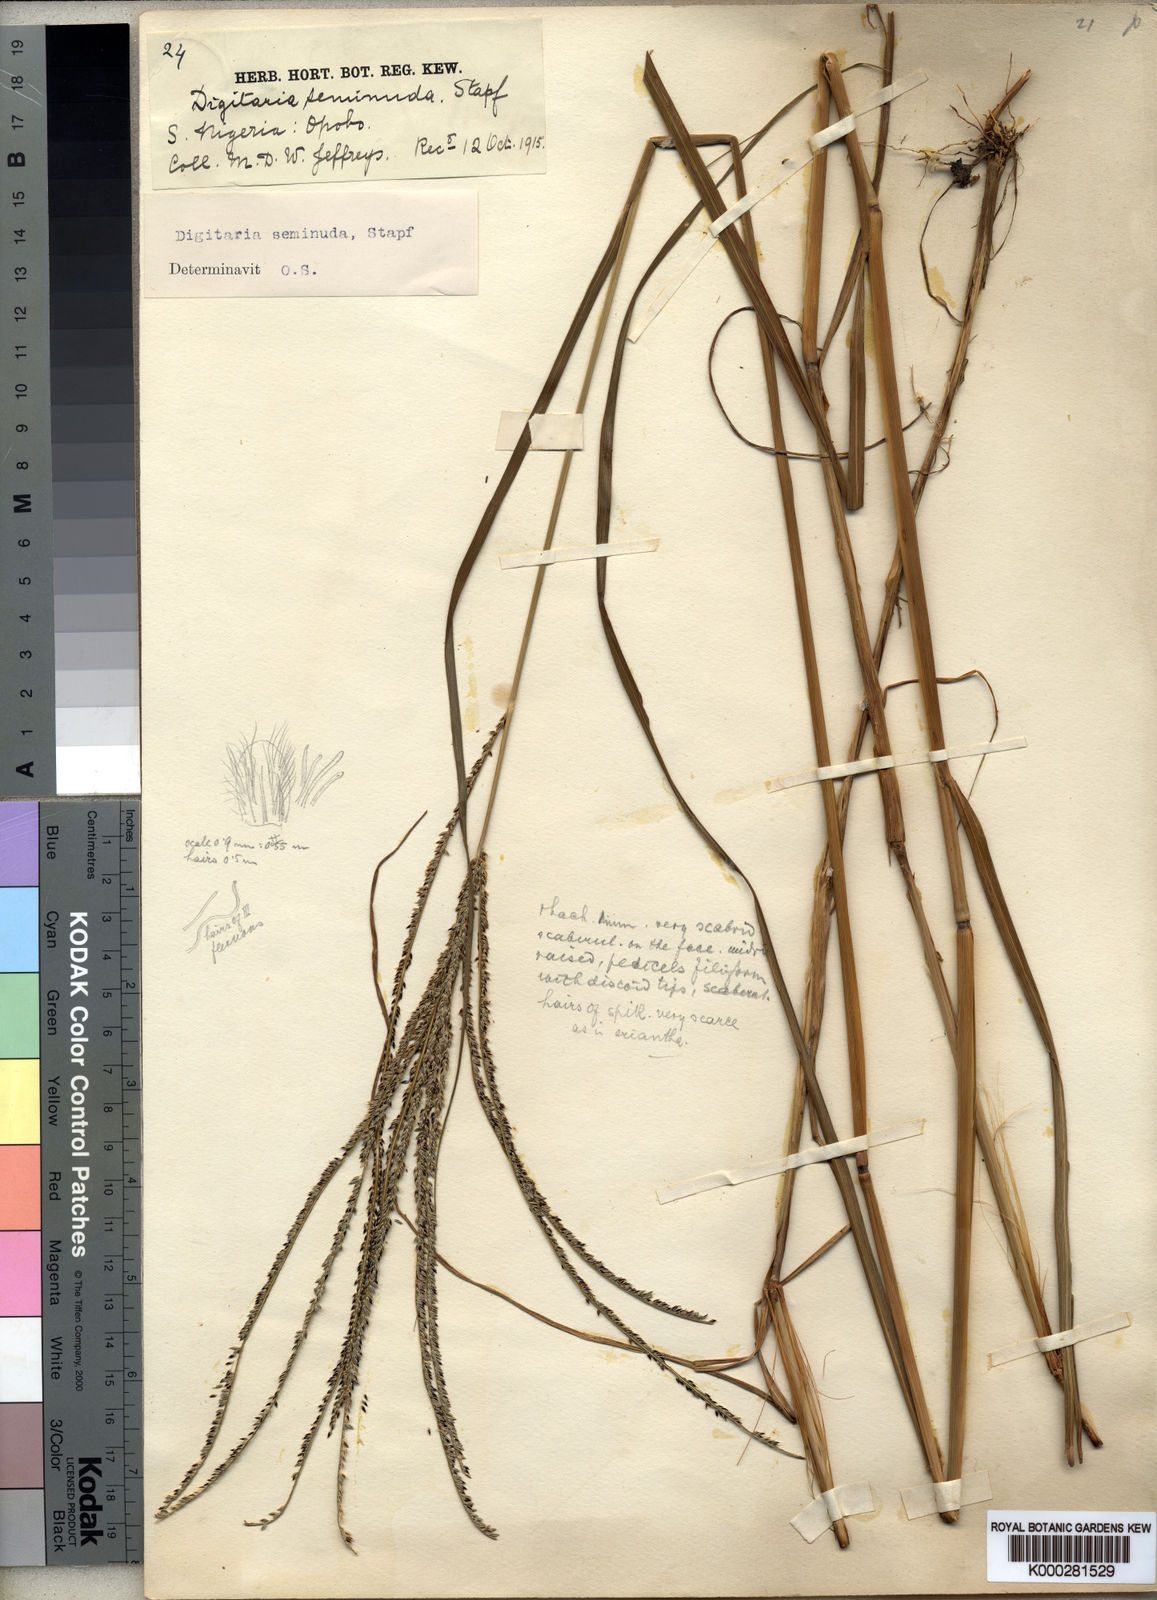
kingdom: Plantae
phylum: Tracheophyta
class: Liliopsida
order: Poales
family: Poaceae
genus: Digitaria
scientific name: Digitaria atrofusca
